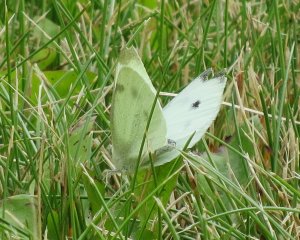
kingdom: Animalia
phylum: Arthropoda
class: Insecta
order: Lepidoptera
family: Pieridae
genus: Pieris
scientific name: Pieris rapae
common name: Cabbage White
